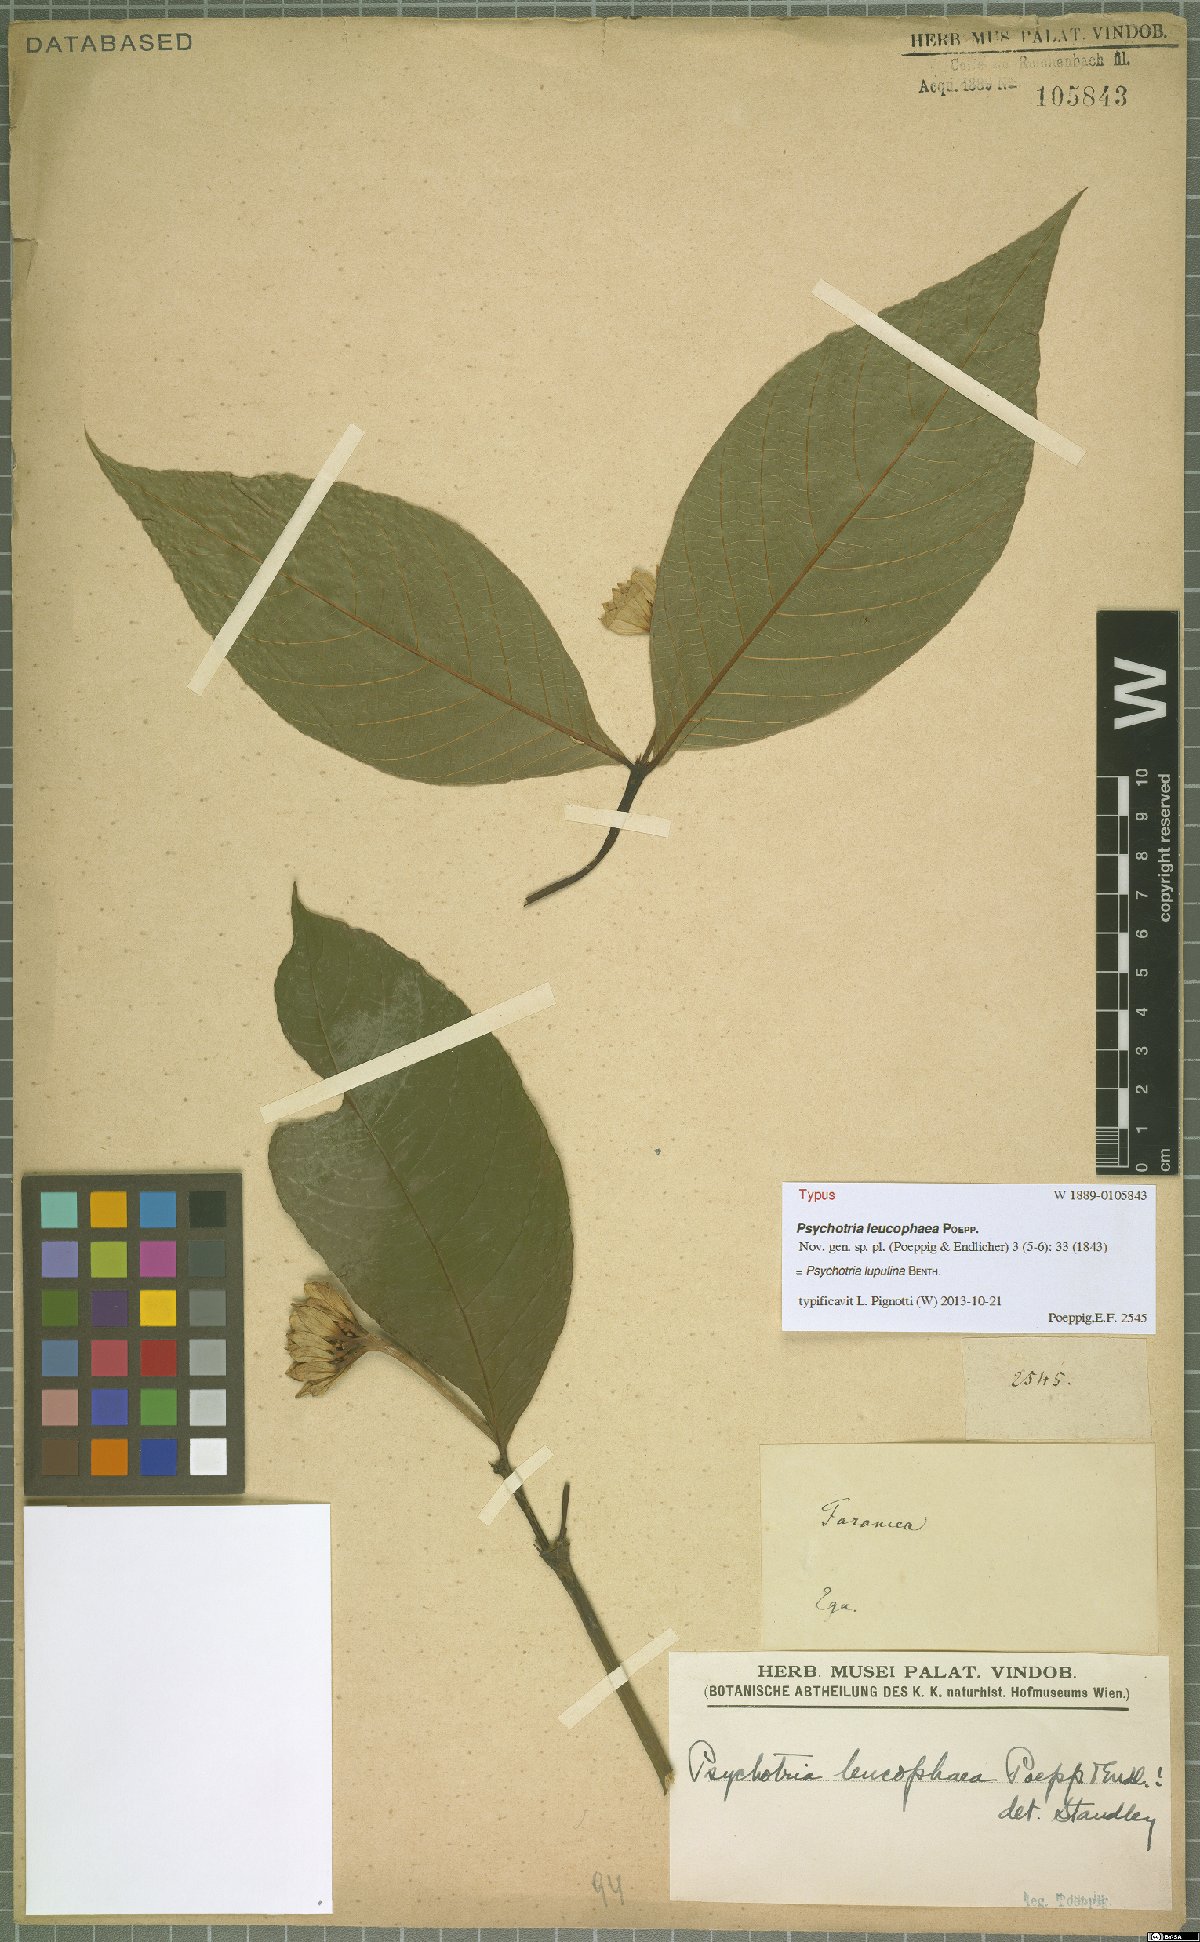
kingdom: Plantae
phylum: Tracheophyta
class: Magnoliopsida
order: Gentianales
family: Rubiaceae
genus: Palicourea
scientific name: Palicourea justiciifolia
